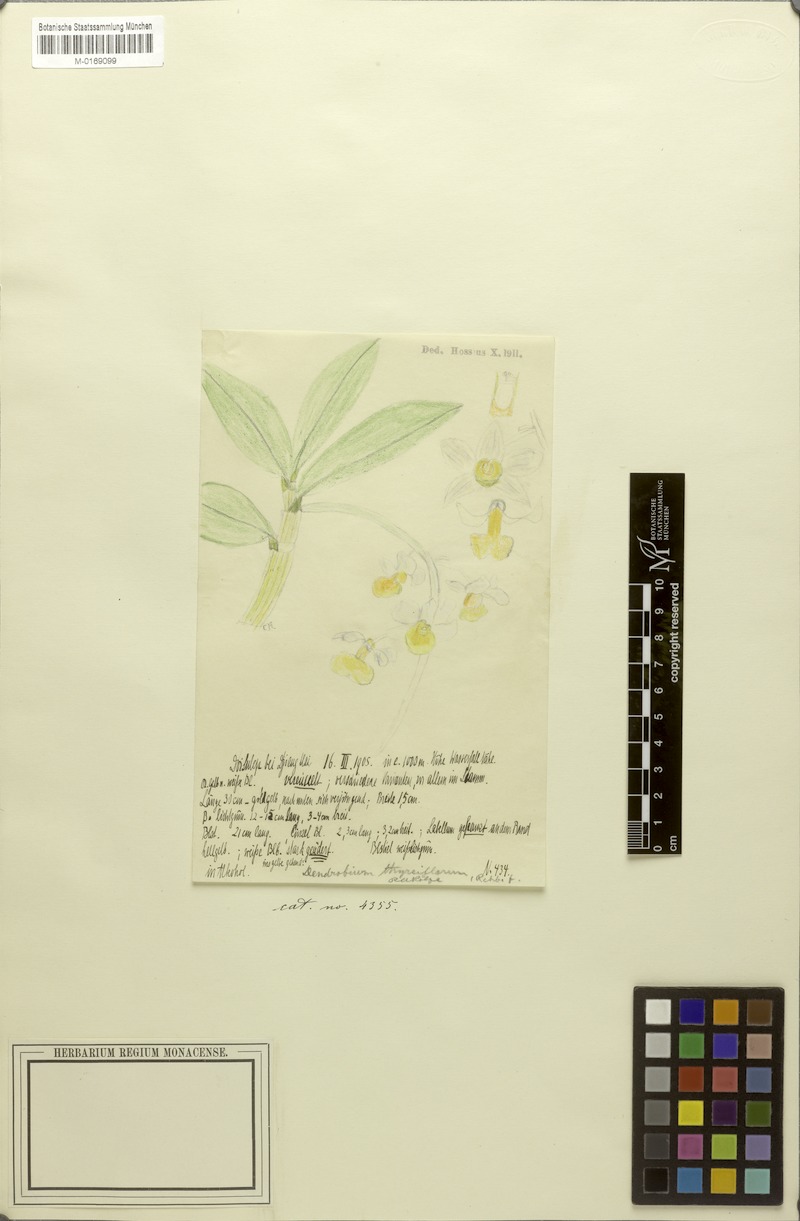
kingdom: Plantae
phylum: Tracheophyta
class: Liliopsida
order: Asparagales
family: Orchidaceae
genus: Dendrobium
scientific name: Dendrobium thyrsiflorum
